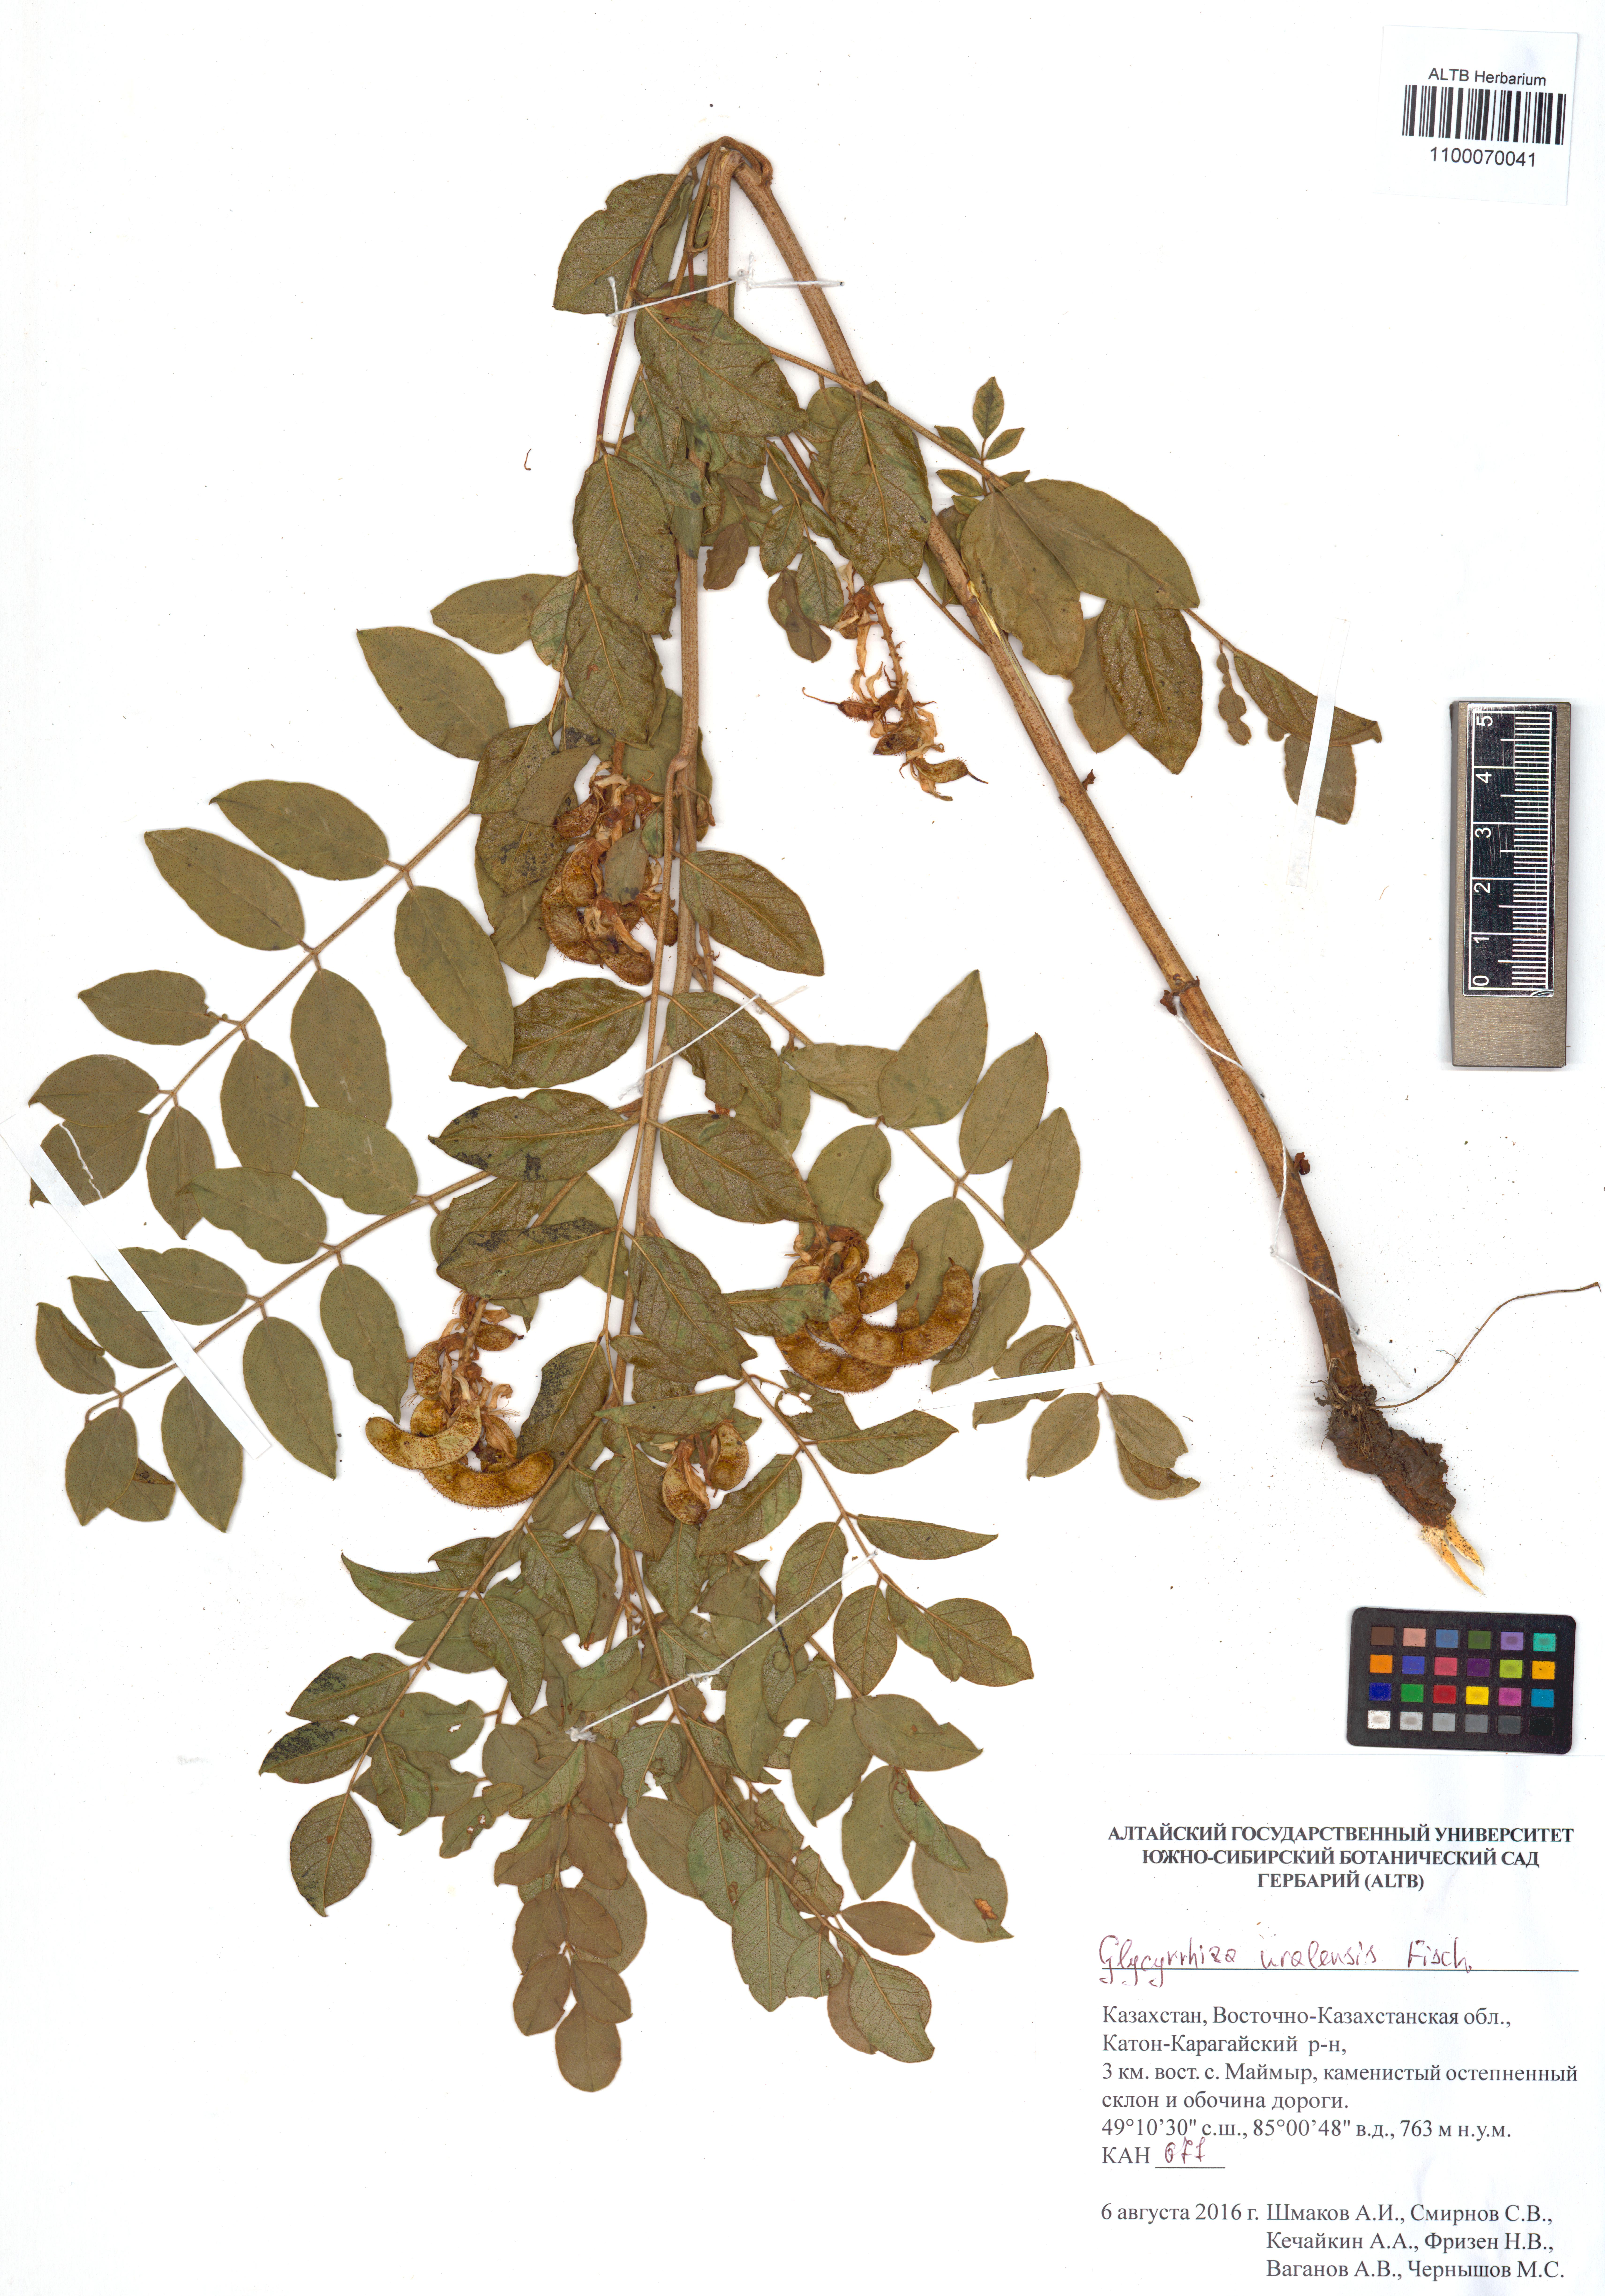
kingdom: Plantae
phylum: Tracheophyta
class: Magnoliopsida
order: Fabales
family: Fabaceae
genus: Glycyrrhiza
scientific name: Glycyrrhiza uralensis
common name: Chinese licorice
